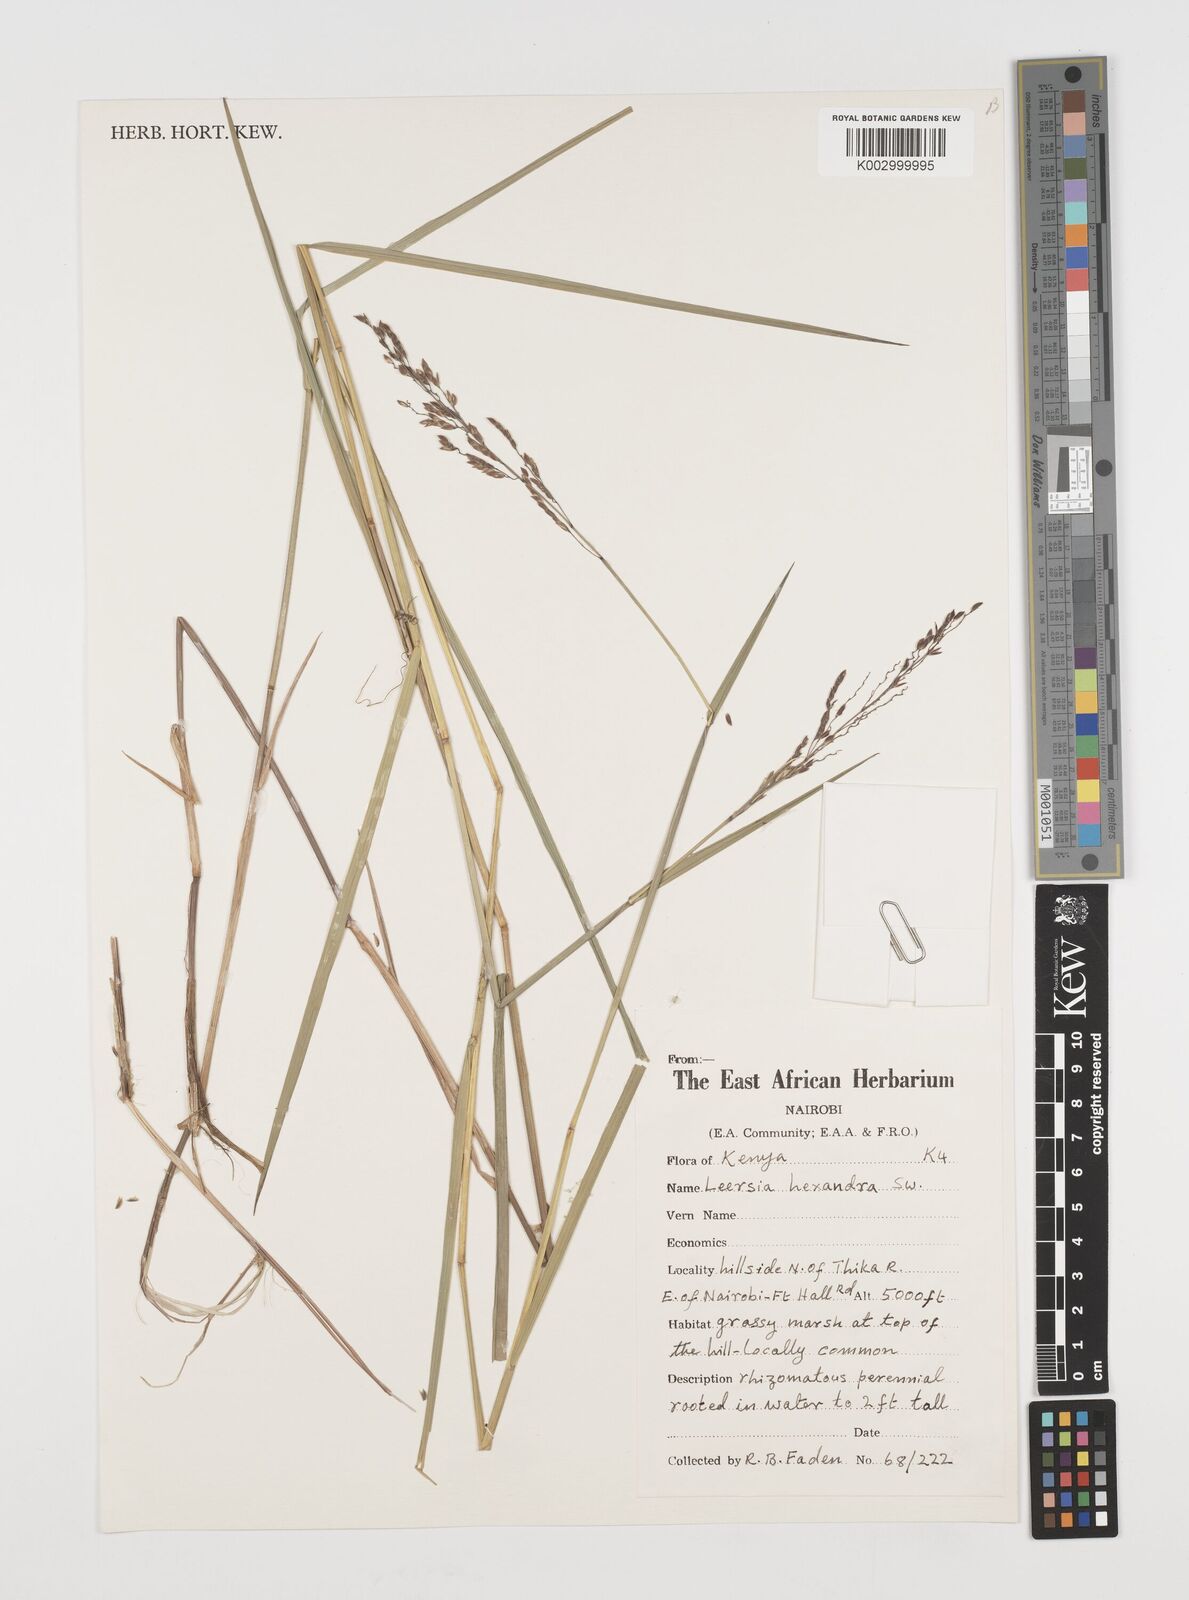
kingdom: Plantae
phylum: Tracheophyta
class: Liliopsida
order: Poales
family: Poaceae
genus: Leersia
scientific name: Leersia hexandra
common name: Southern cut grass
